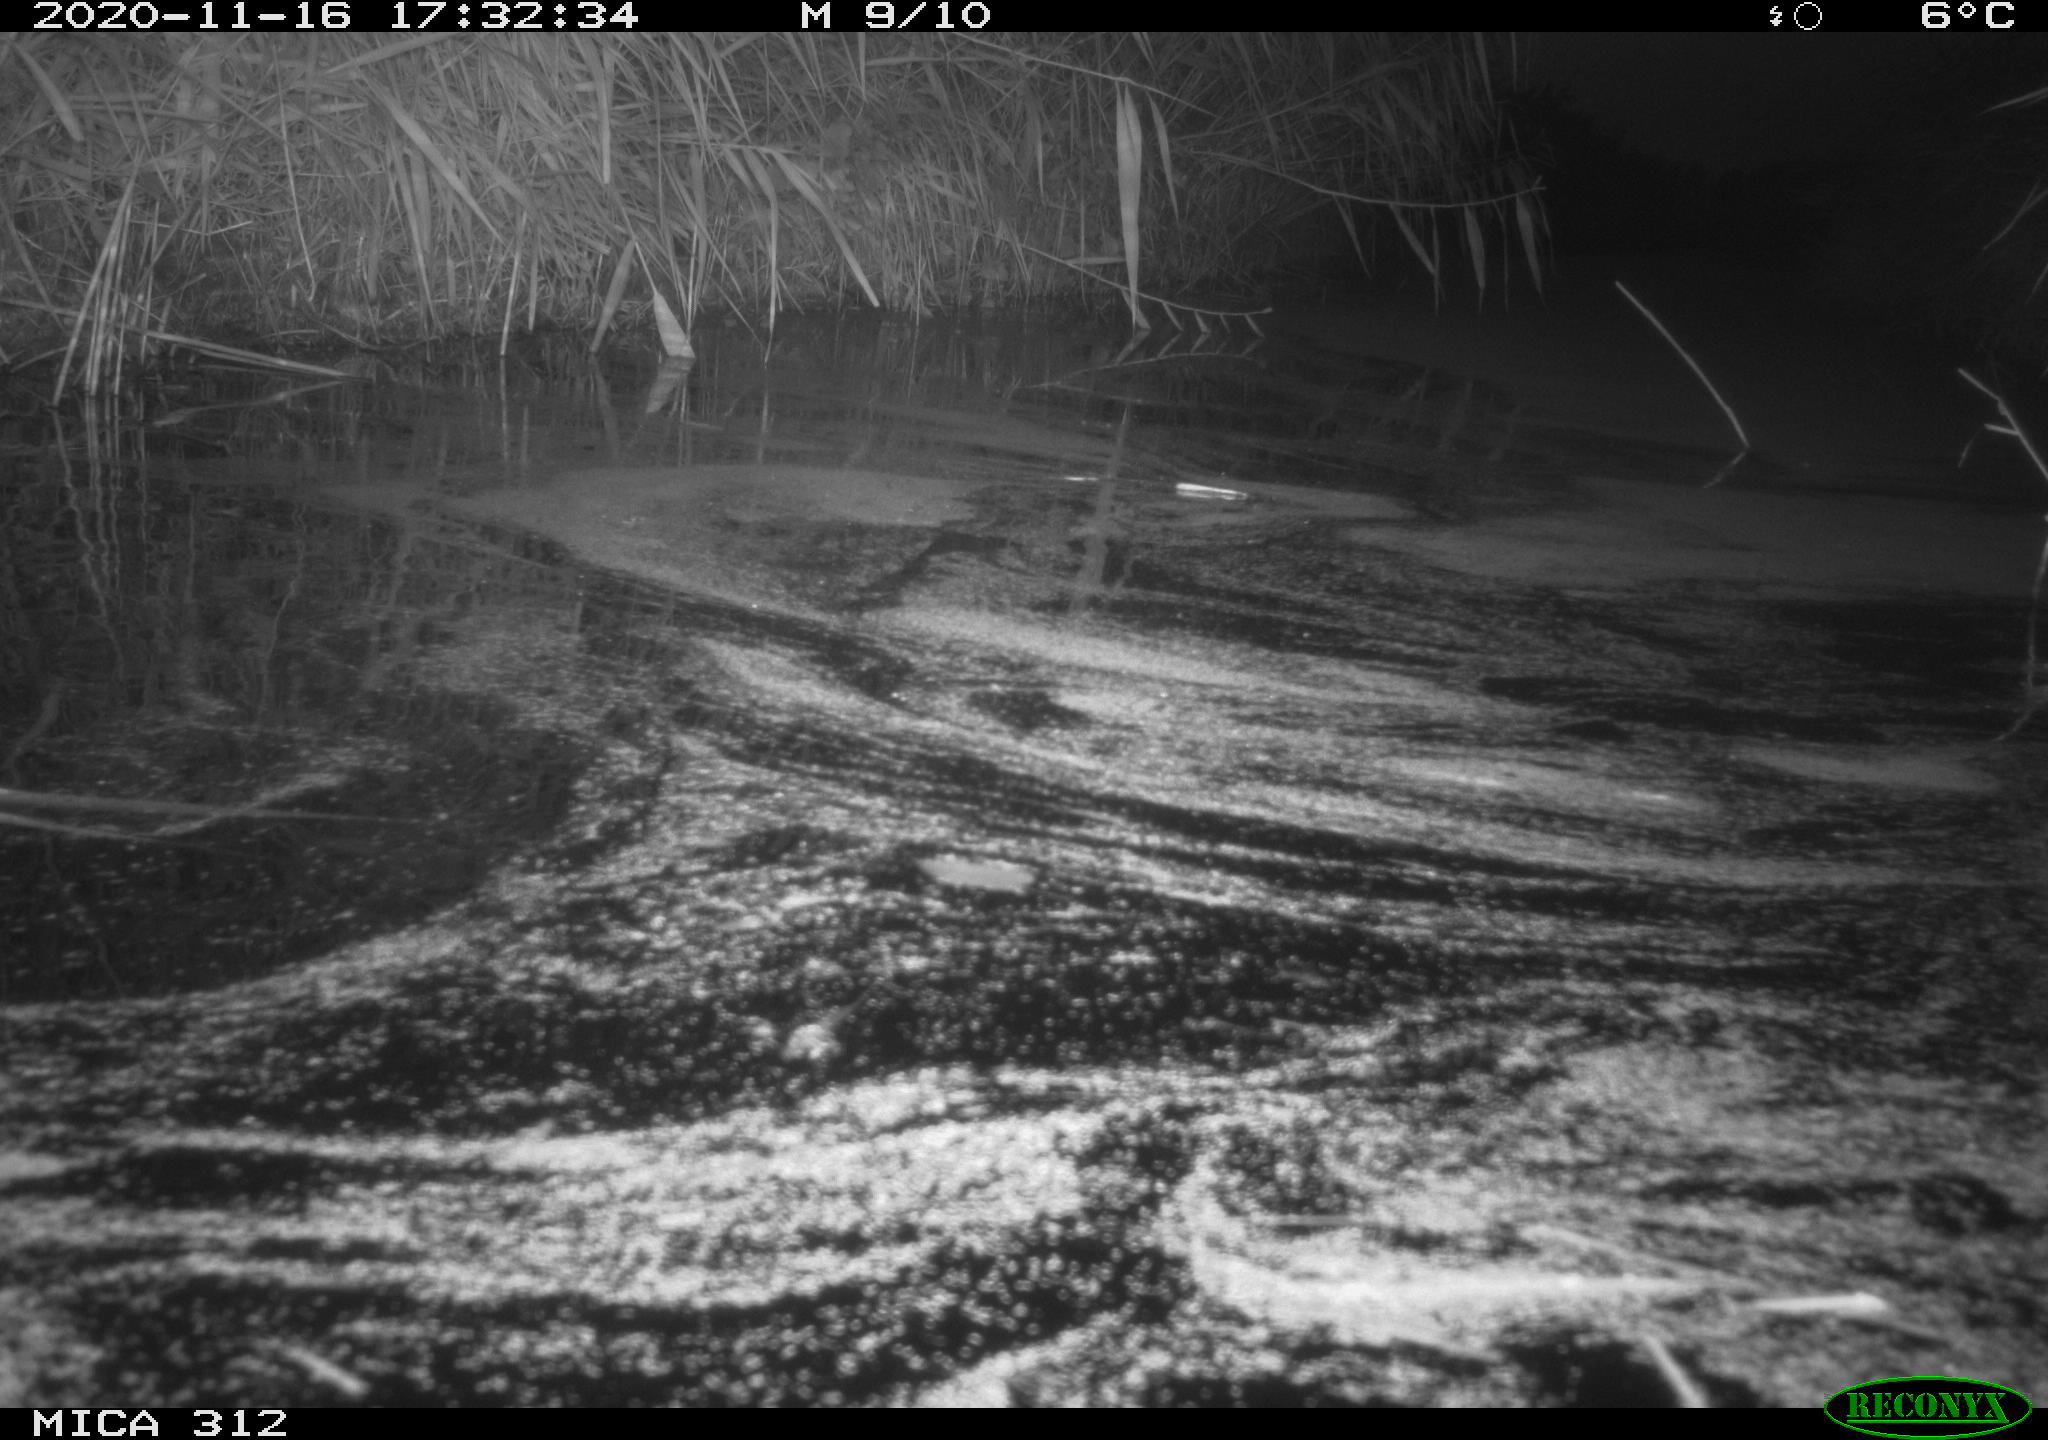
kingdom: Animalia
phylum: Chordata
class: Mammalia
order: Rodentia
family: Muridae
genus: Rattus
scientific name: Rattus norvegicus
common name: Brown rat
